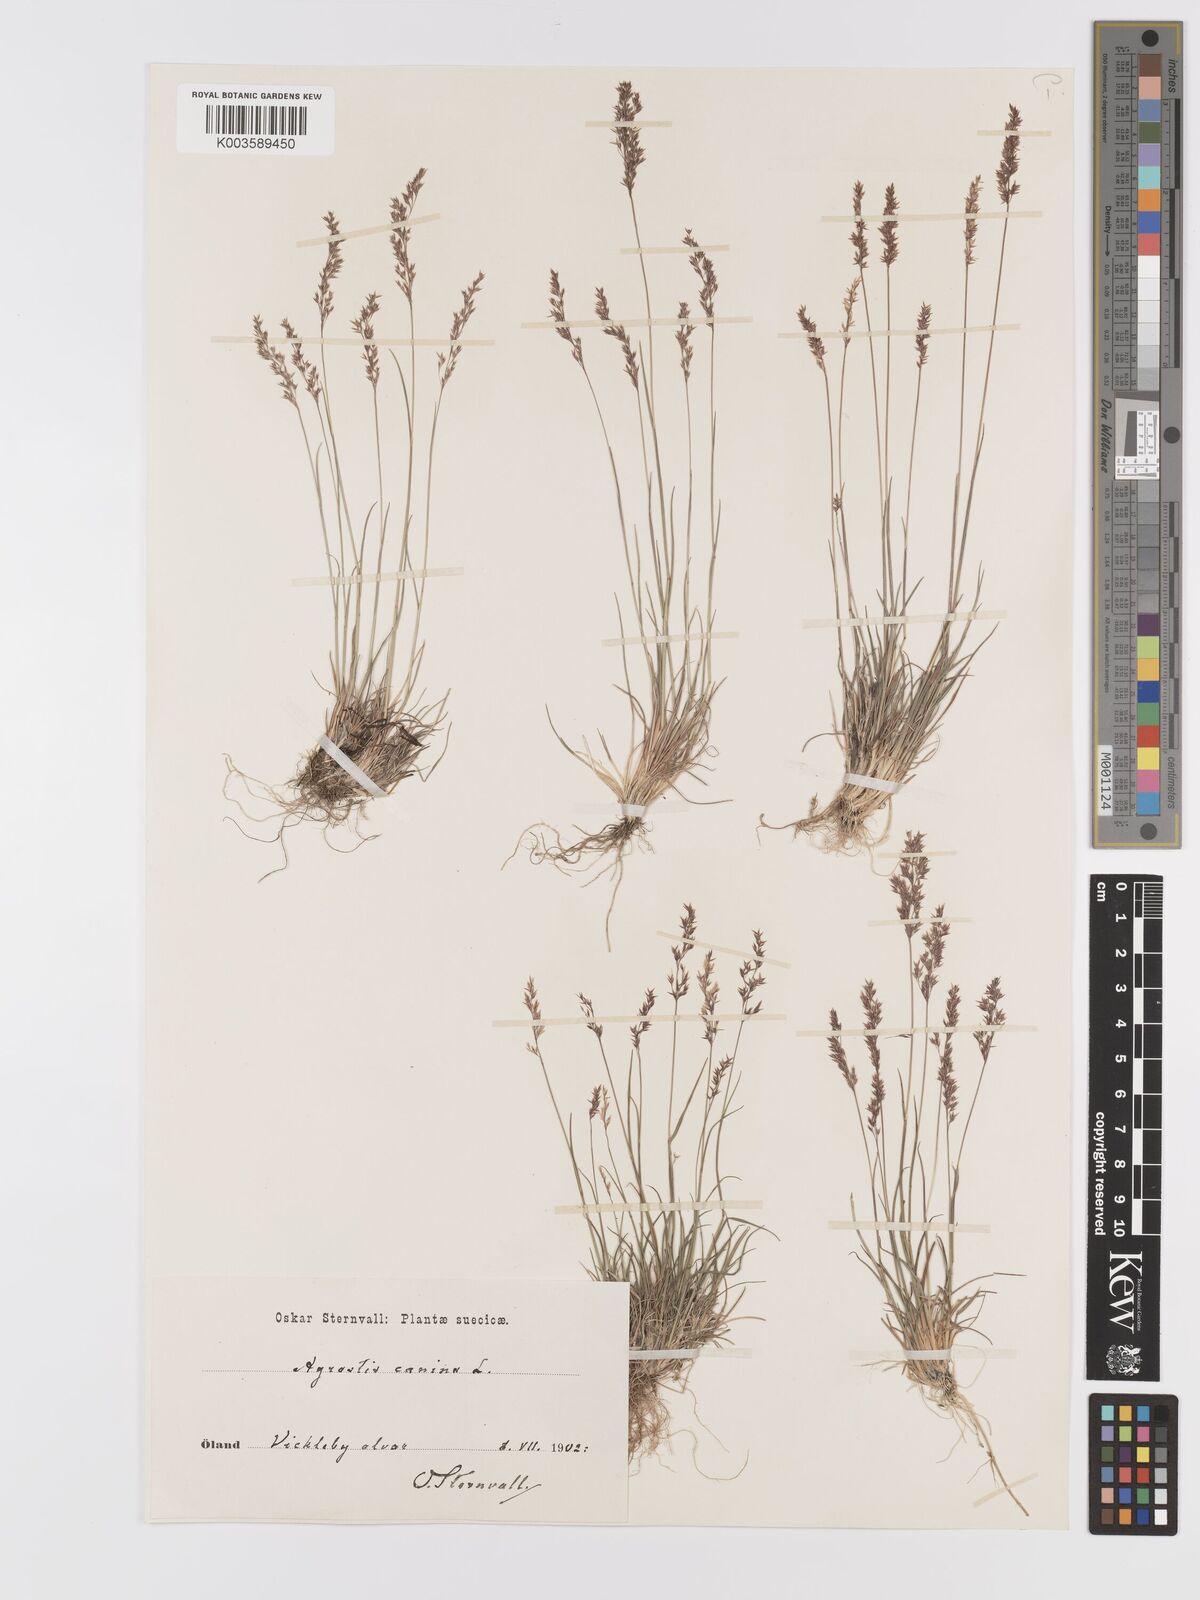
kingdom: Plantae
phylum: Tracheophyta
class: Liliopsida
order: Poales
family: Poaceae
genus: Agrostis
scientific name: Agrostis canina
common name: Velvet bent
